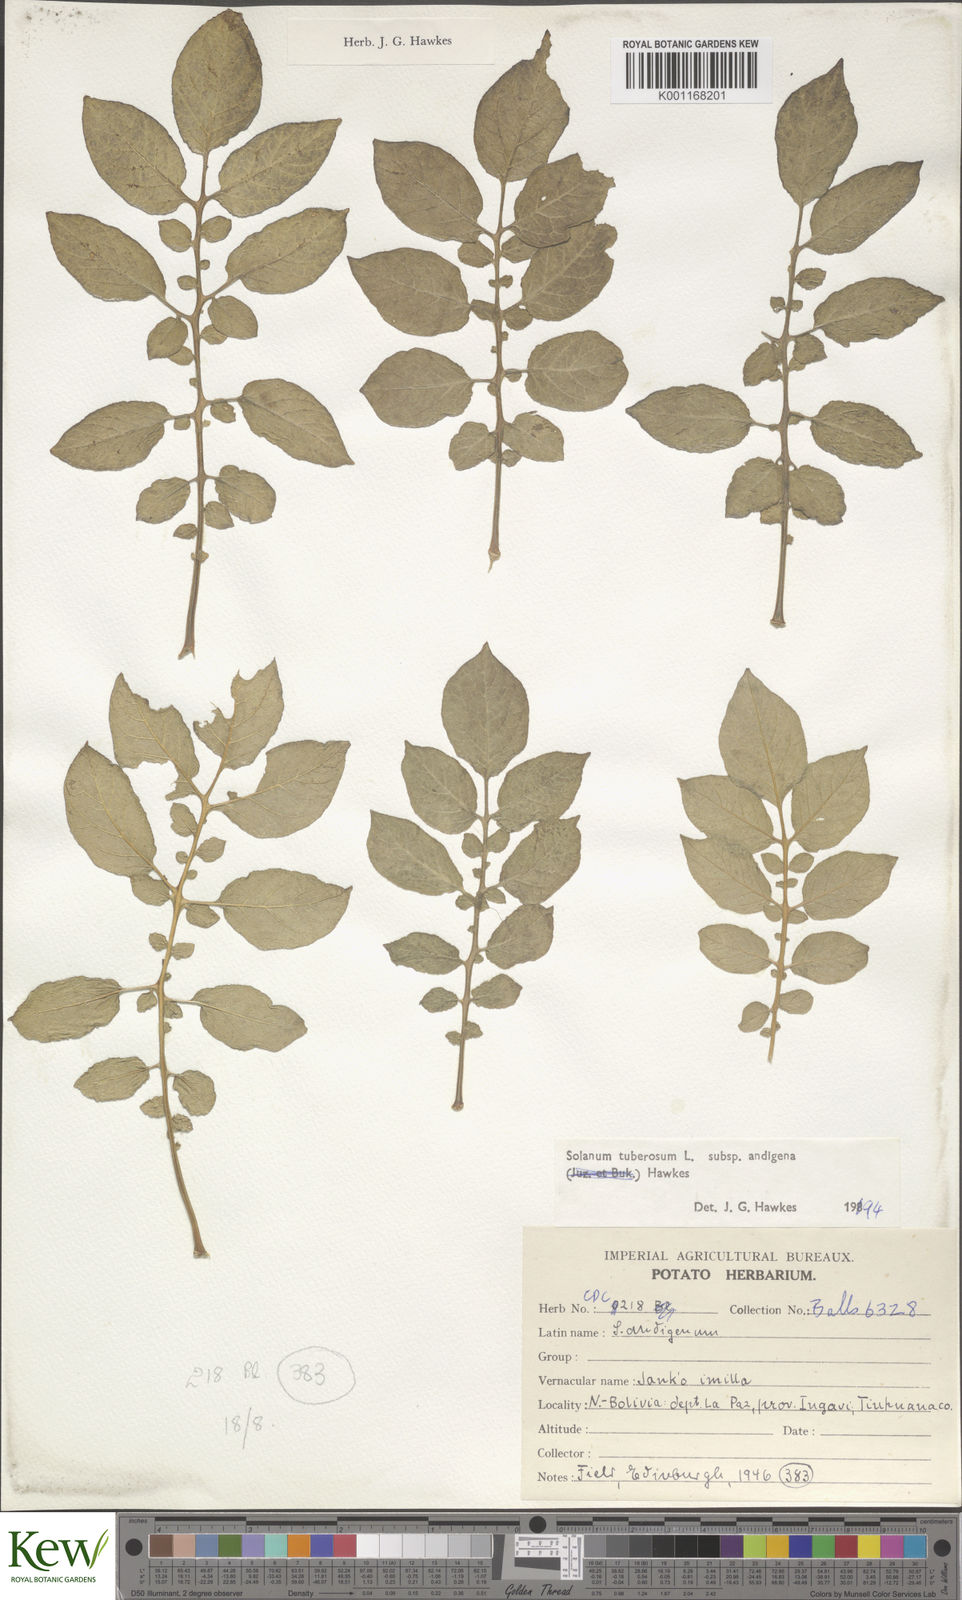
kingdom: Plantae
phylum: Tracheophyta
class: Magnoliopsida
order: Solanales
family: Solanaceae
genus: Solanum
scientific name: Solanum tuberosum
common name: Potato
